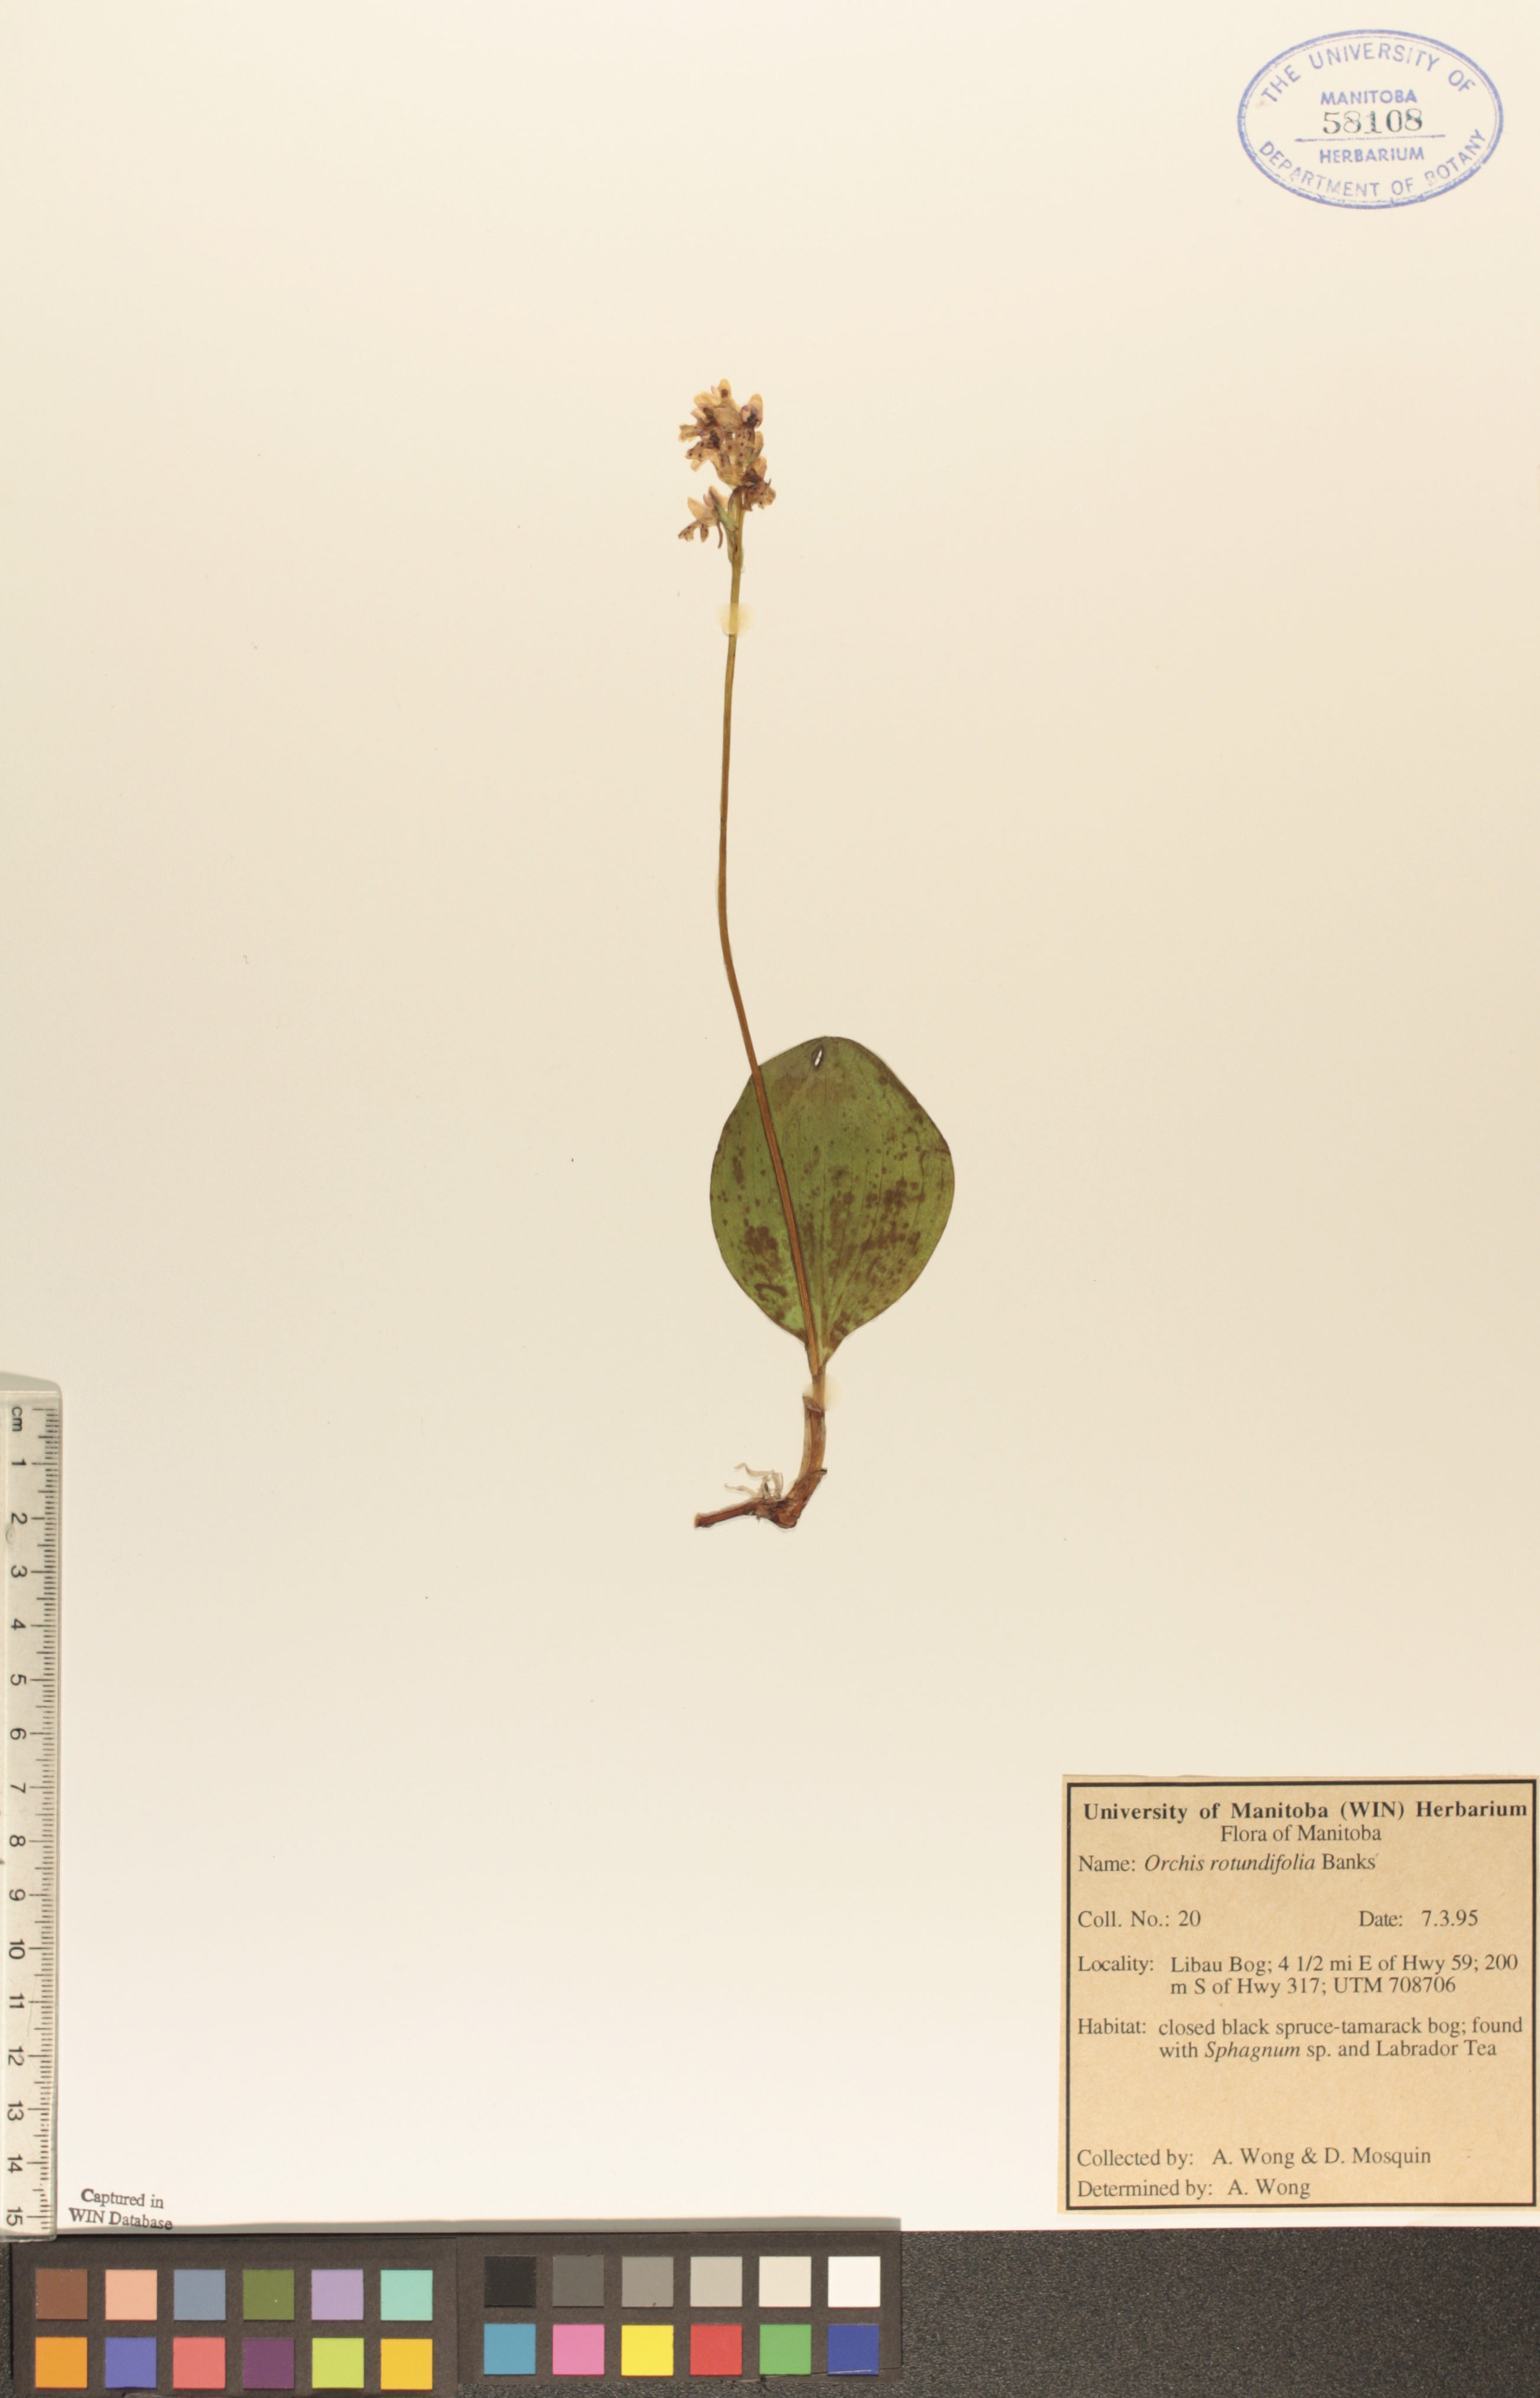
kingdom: Plantae
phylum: Tracheophyta
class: Liliopsida
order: Asparagales
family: Orchidaceae
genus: Galearis
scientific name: Galearis rotundifolia
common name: One-leaved orchis
